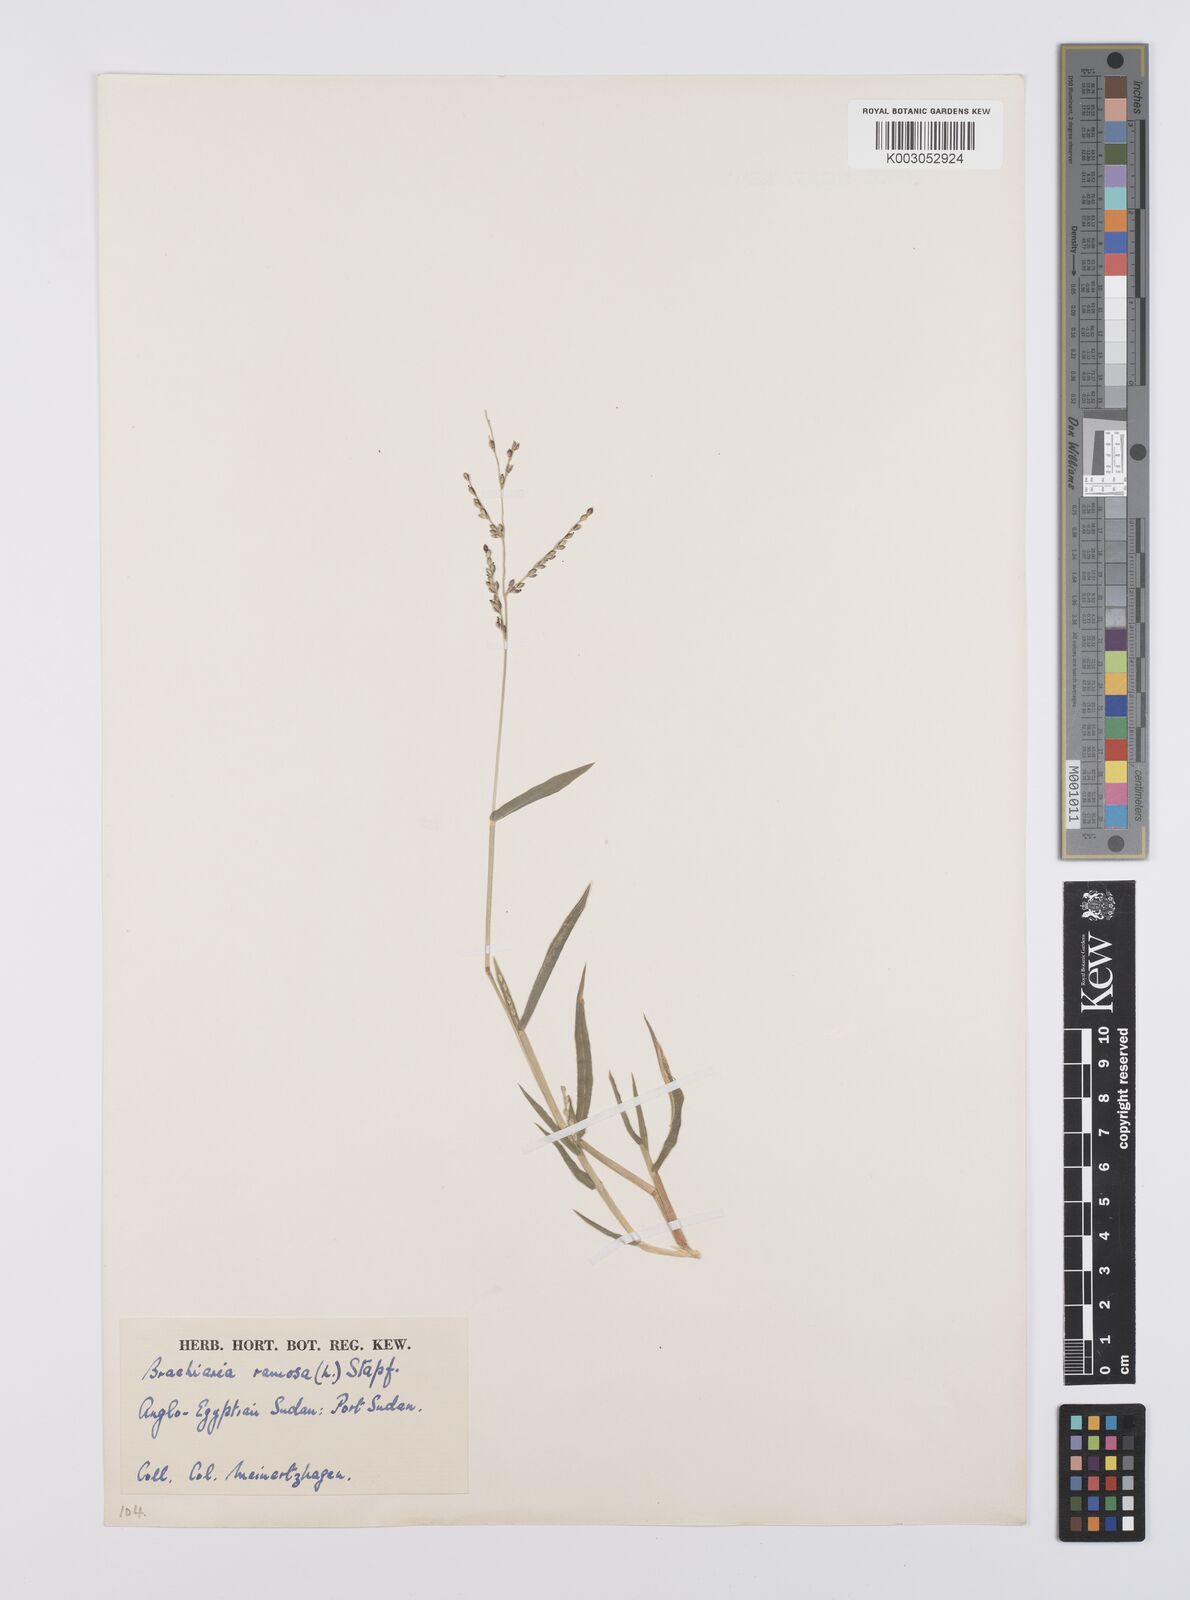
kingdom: Plantae
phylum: Tracheophyta
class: Liliopsida
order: Poales
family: Poaceae
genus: Urochloa
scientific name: Urochloa ramosa
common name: Browntop millet
